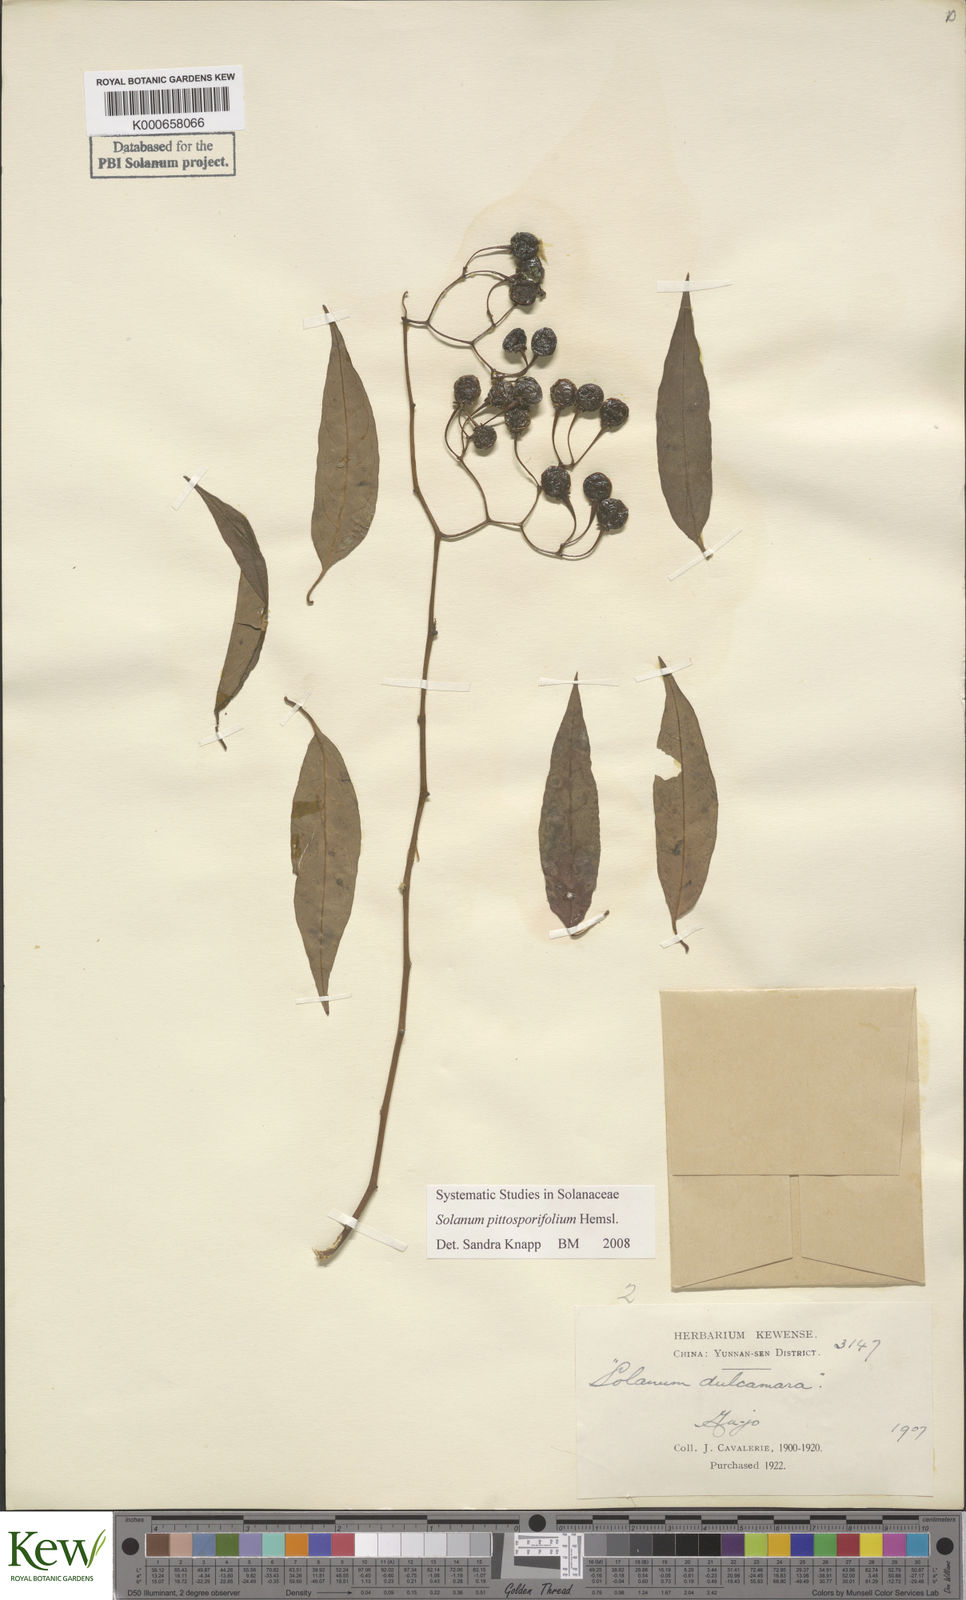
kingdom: Plantae
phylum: Tracheophyta
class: Magnoliopsida
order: Solanales
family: Solanaceae
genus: Solanum
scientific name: Solanum pittosporifolium
